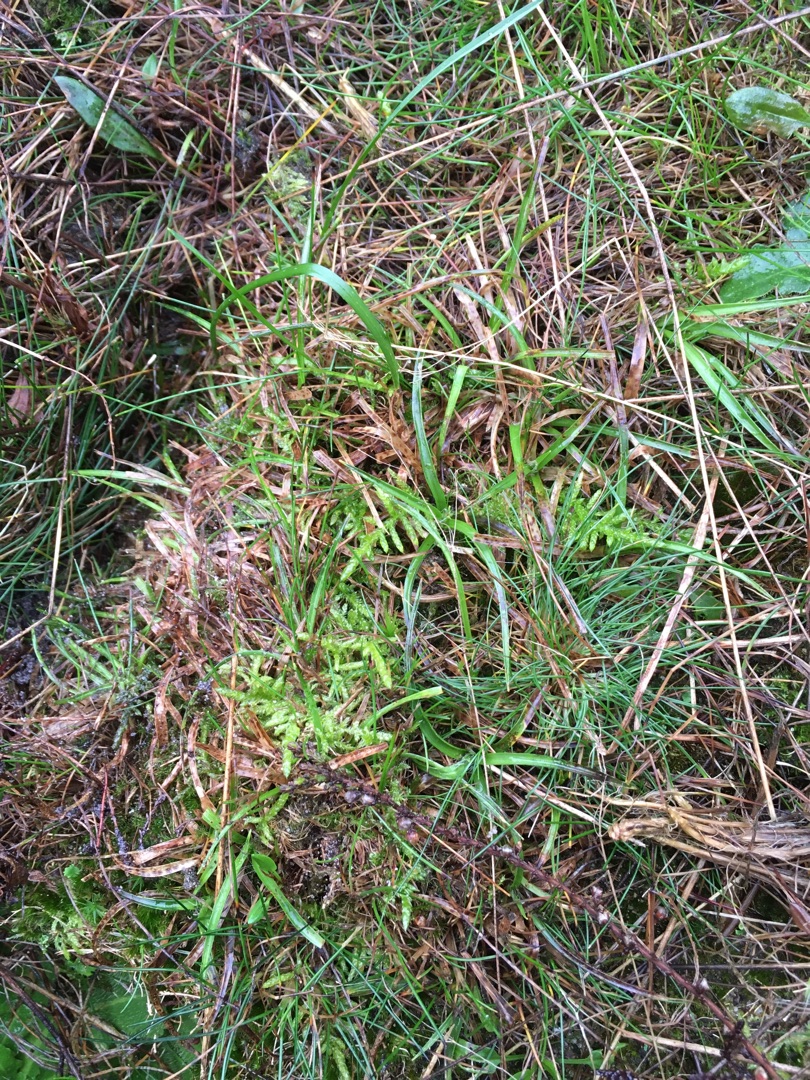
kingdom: Plantae
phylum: Tracheophyta
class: Liliopsida
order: Poales
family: Juncaceae
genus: Luzula
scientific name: Luzula campestris
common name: Mark-frytle
